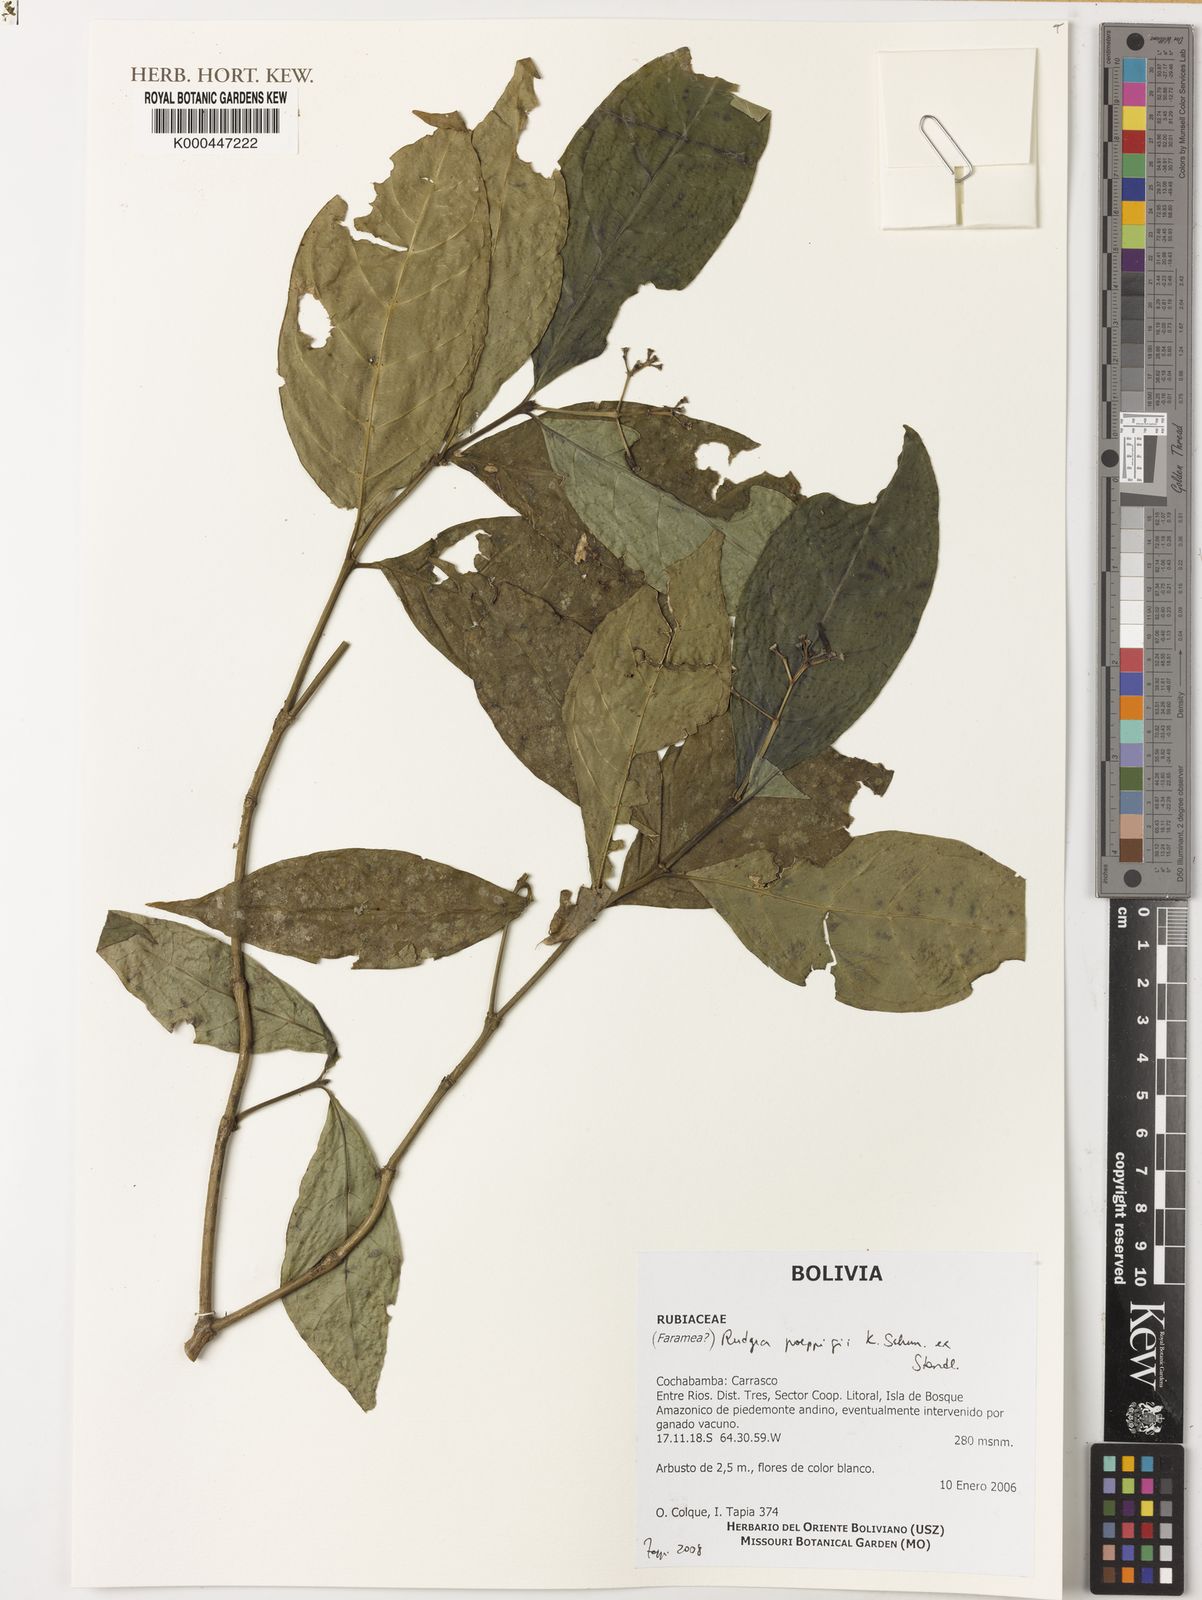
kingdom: Plantae
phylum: Tracheophyta
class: Magnoliopsida
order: Gentianales
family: Rubiaceae
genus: Rudgea
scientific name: Rudgea poeppigii
